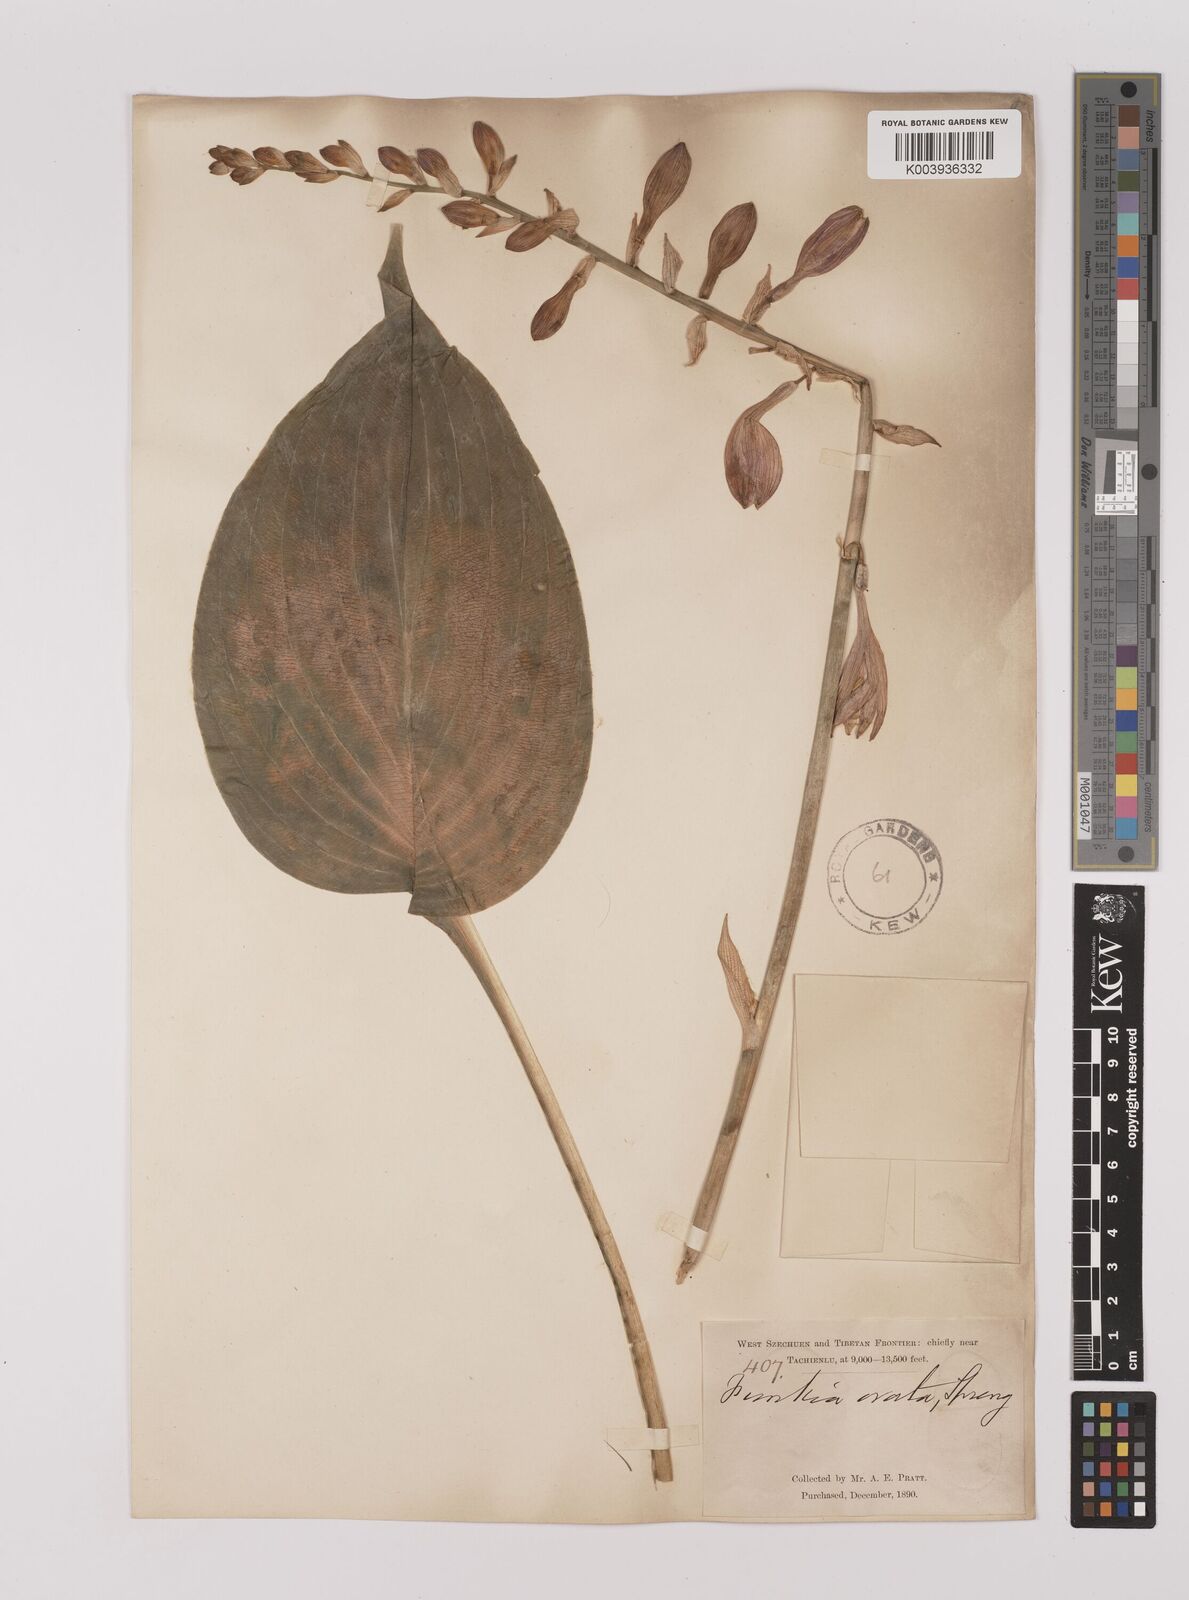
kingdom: Plantae
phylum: Tracheophyta
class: Liliopsida
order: Asparagales
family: Asparagaceae
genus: Hosta
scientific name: Hosta ventricosa
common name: Blue plantain-lily
